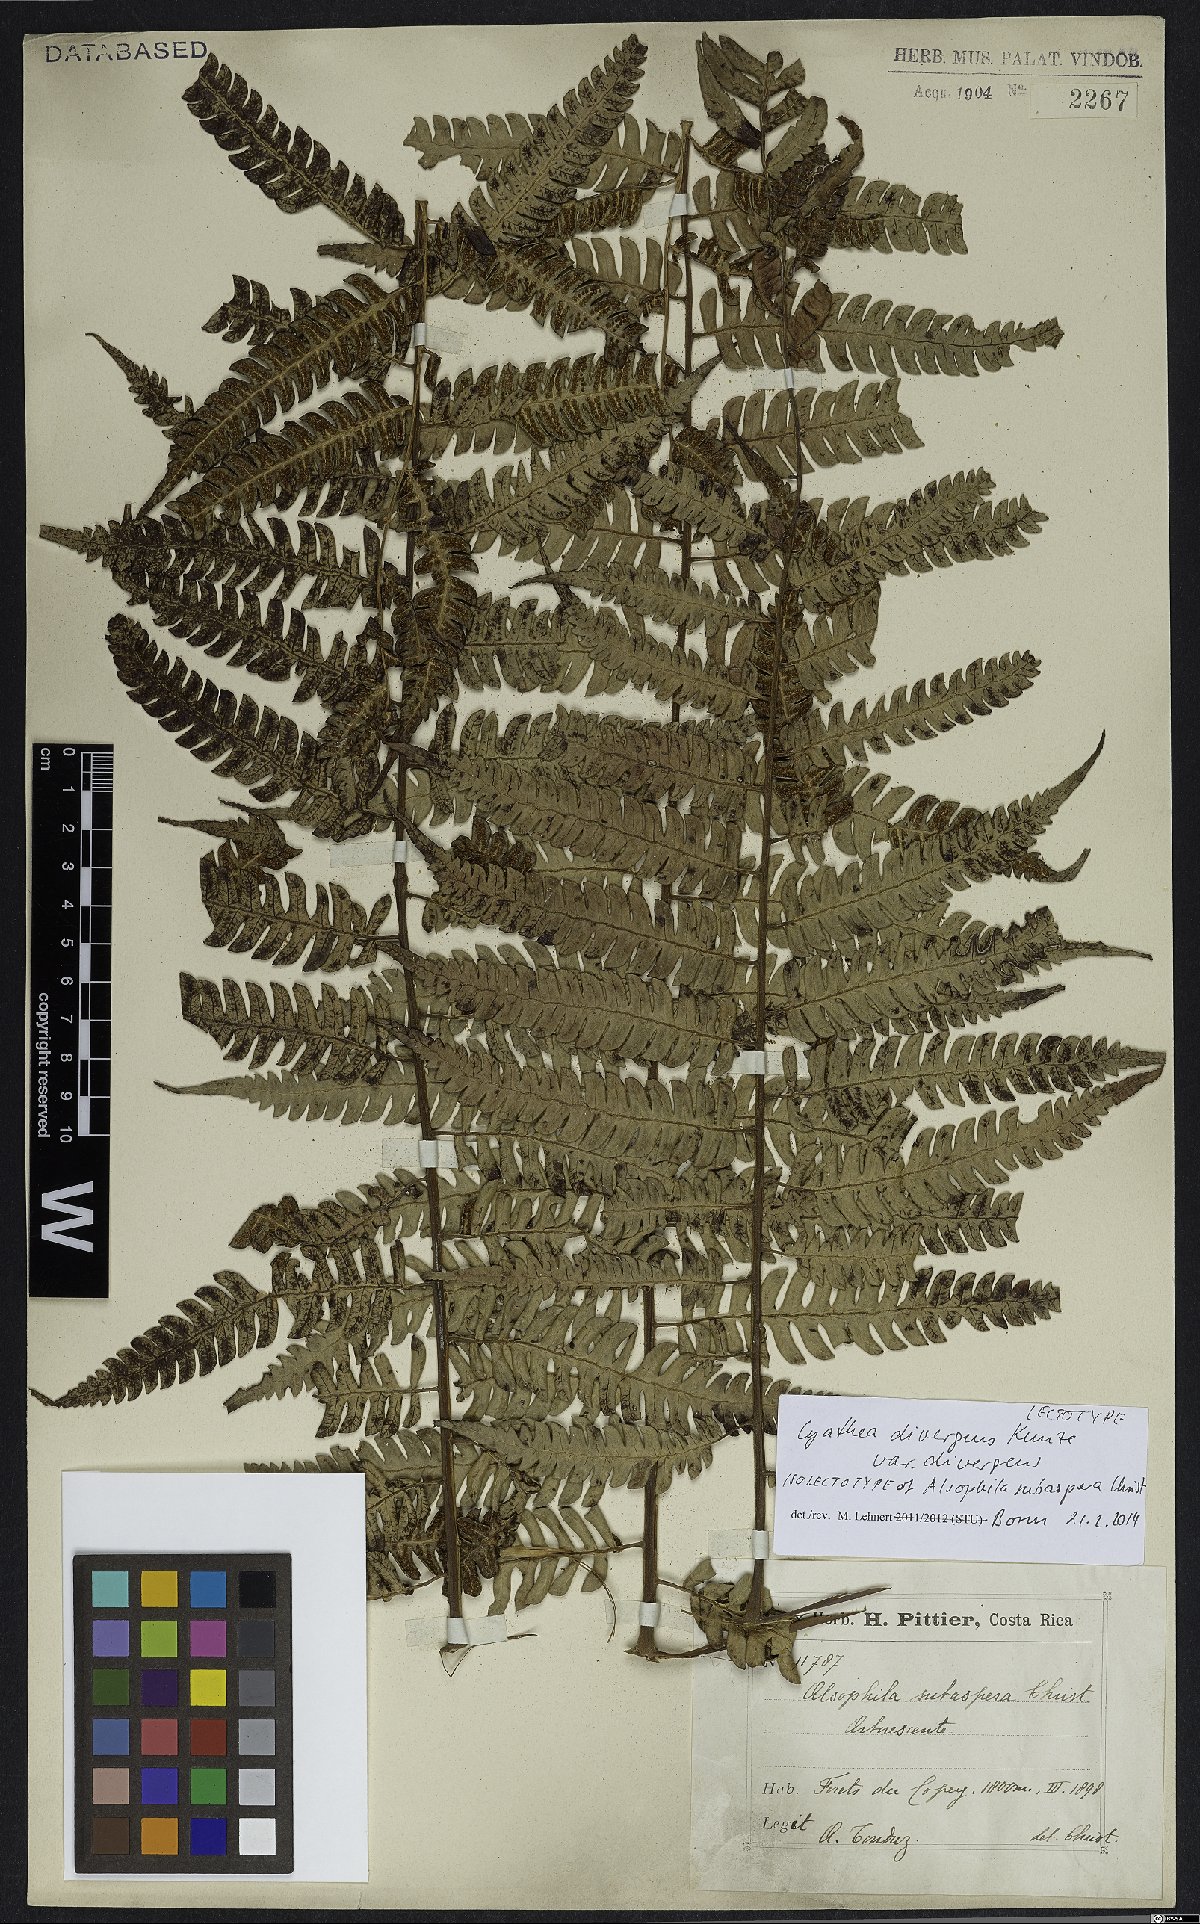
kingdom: Plantae
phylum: Tracheophyta
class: Polypodiopsida
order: Cyatheales
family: Cyatheaceae
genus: Cyathea
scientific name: Cyathea divergens
